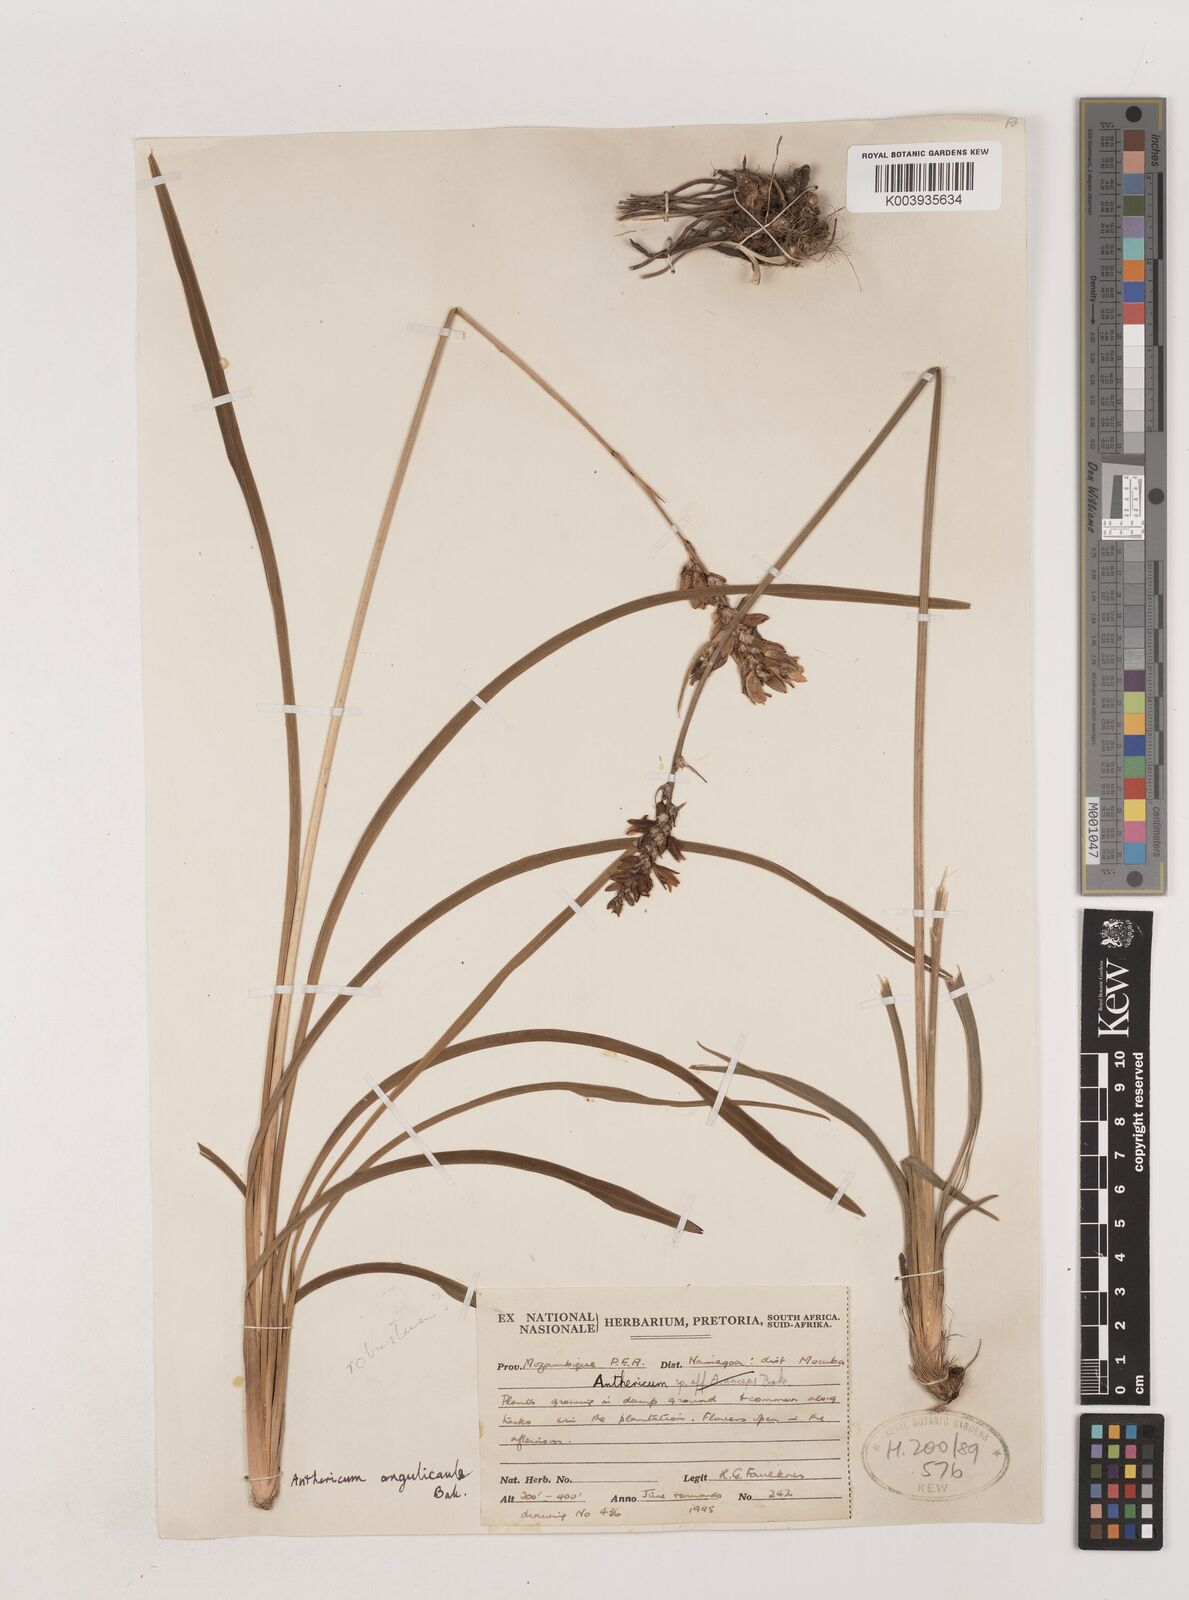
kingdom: Plantae
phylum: Tracheophyta
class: Liliopsida
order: Asparagales
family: Asparagaceae
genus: Chlorophytum
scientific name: Chlorophytum angulicaule
